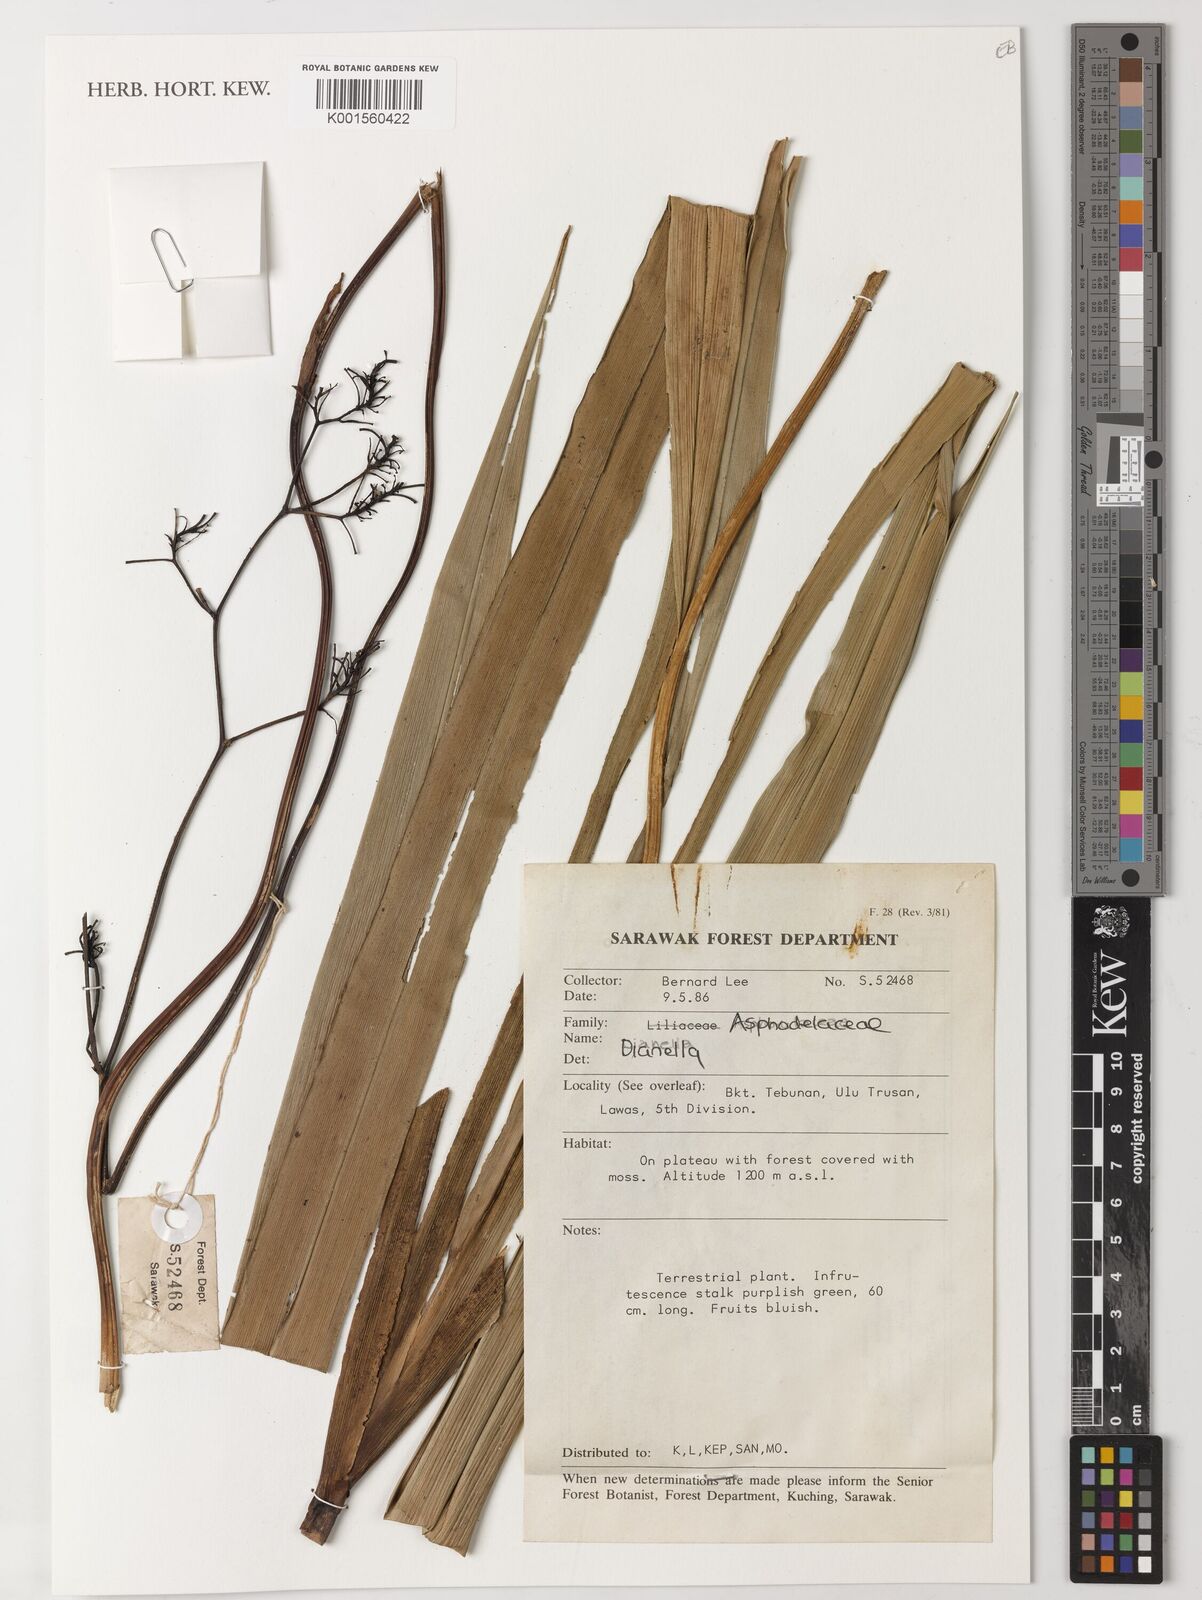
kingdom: Plantae
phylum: Tracheophyta
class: Liliopsida
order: Asparagales
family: Asphodelaceae
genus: Dianella
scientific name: Dianella ensifolia
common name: New zealand lilyplant
